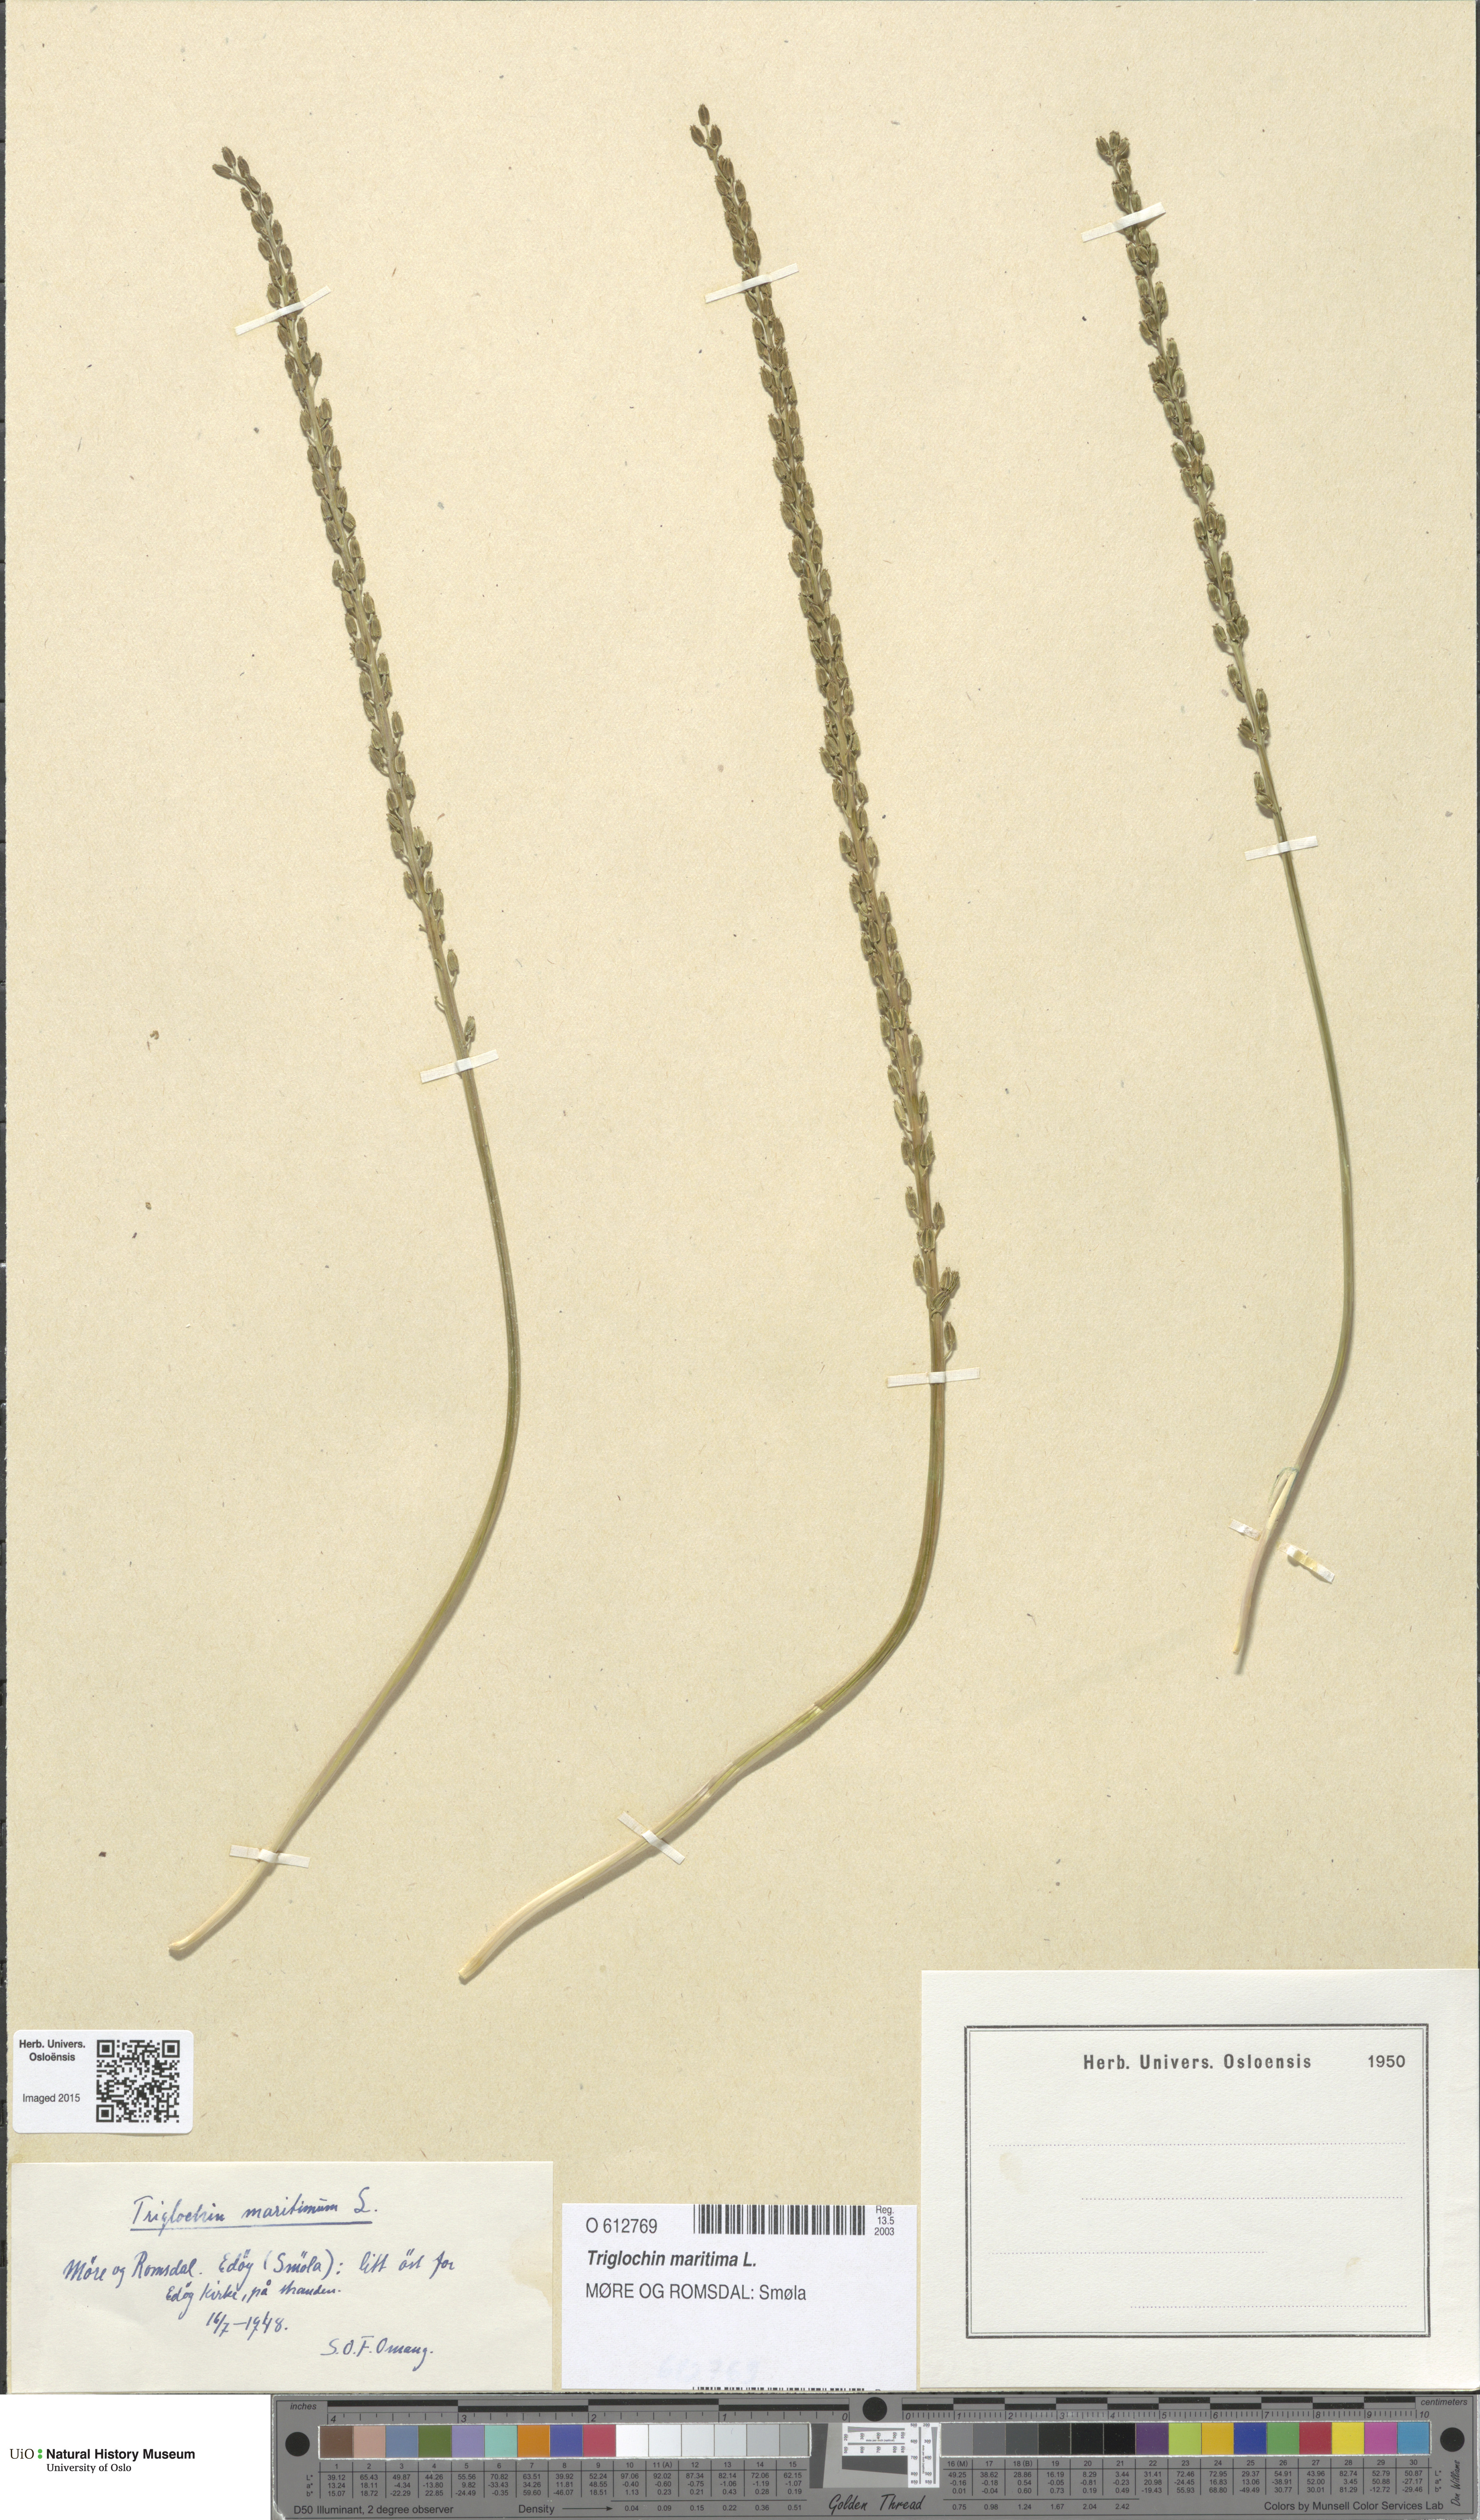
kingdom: Plantae
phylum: Tracheophyta
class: Liliopsida
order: Alismatales
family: Juncaginaceae
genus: Triglochin
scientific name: Triglochin maritima
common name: Sea arrowgrass
